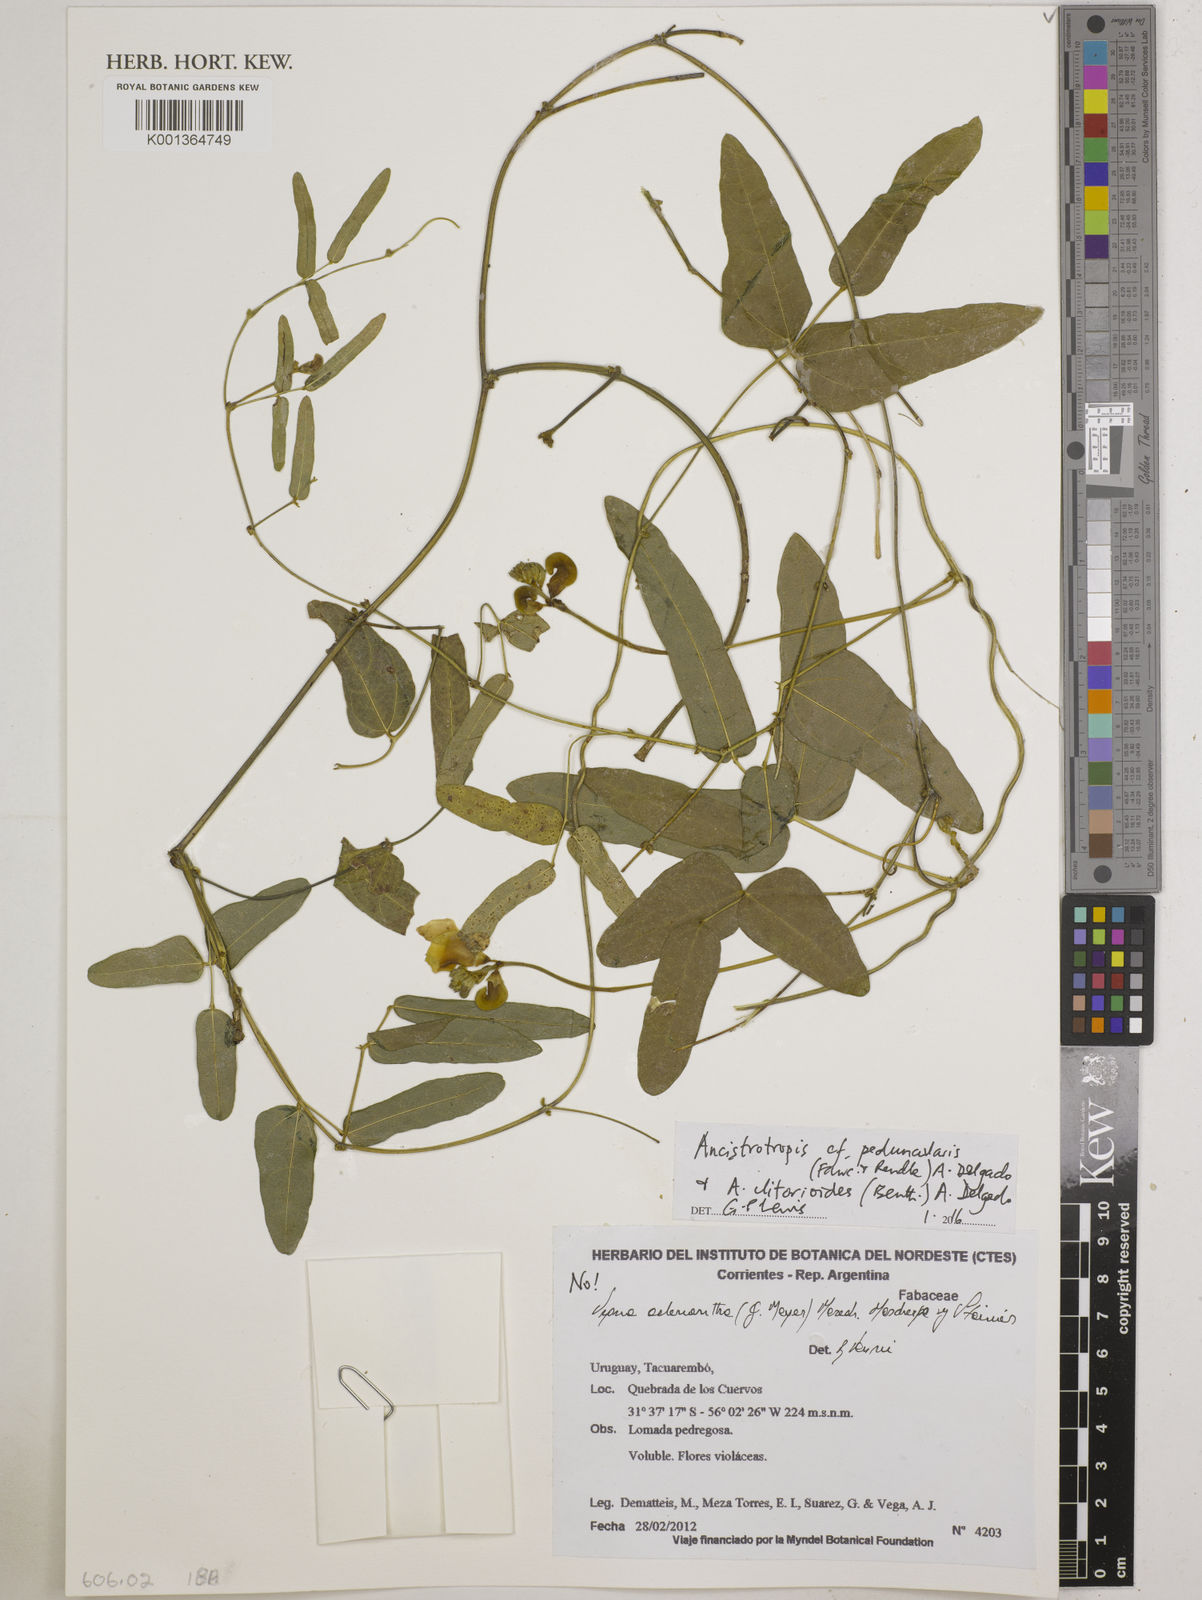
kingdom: Plantae
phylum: Tracheophyta
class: Magnoliopsida
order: Fabales
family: Fabaceae
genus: Ancistrotropis
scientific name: Ancistrotropis clitorioides
